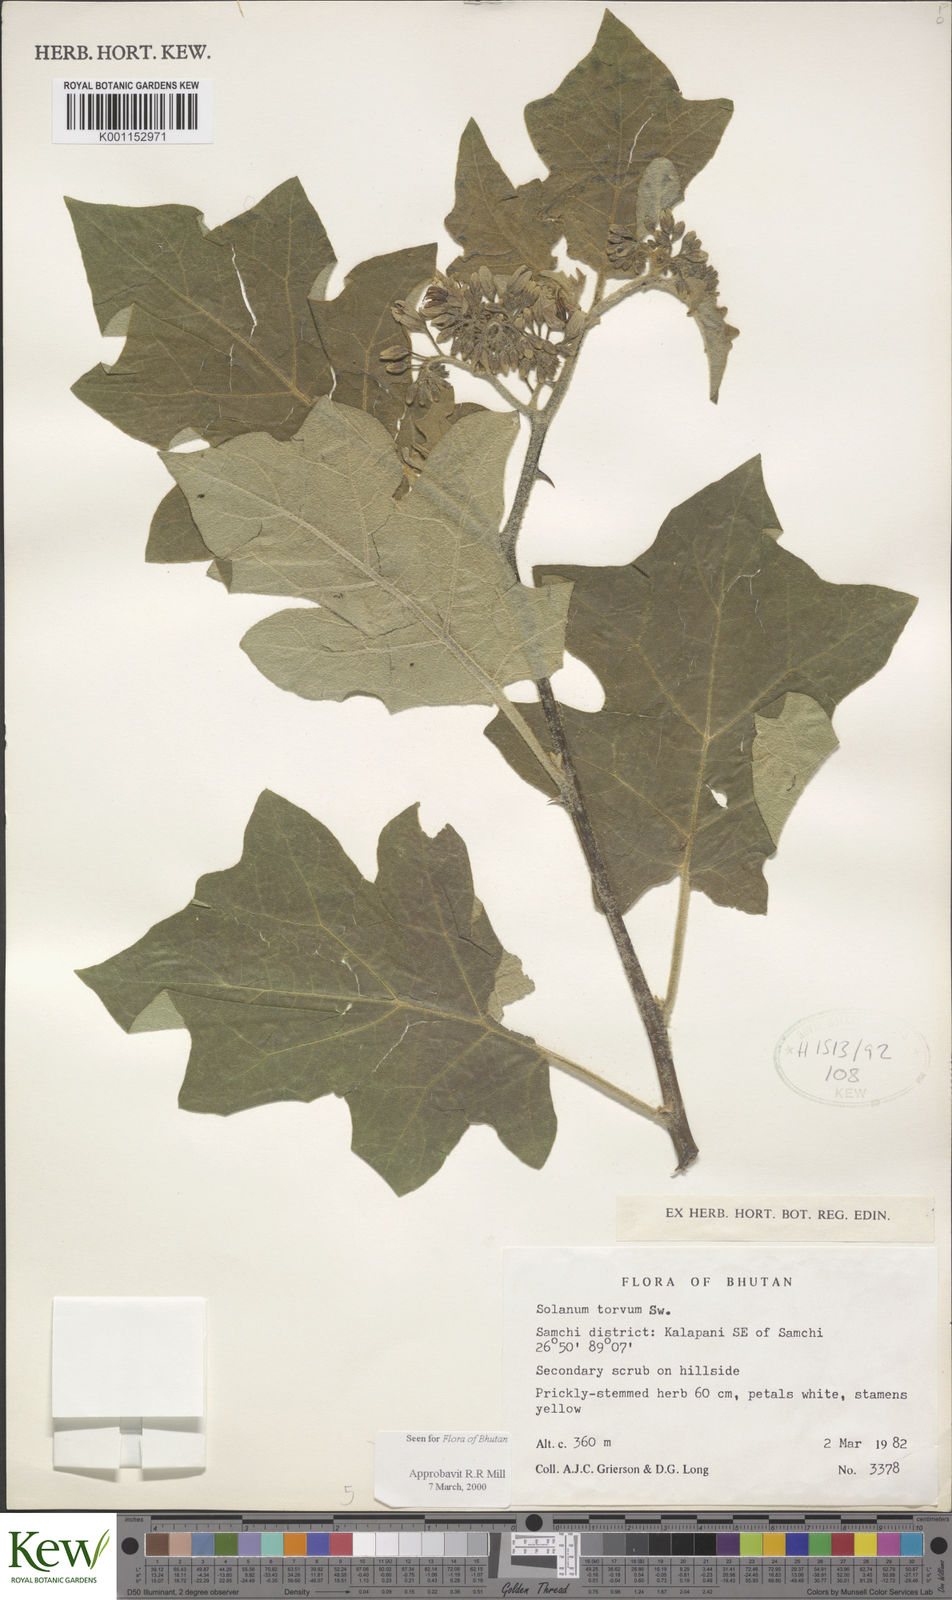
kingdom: Plantae
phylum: Tracheophyta
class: Magnoliopsida
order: Solanales
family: Solanaceae
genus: Solanum
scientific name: Solanum torvum
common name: Turkey berry
